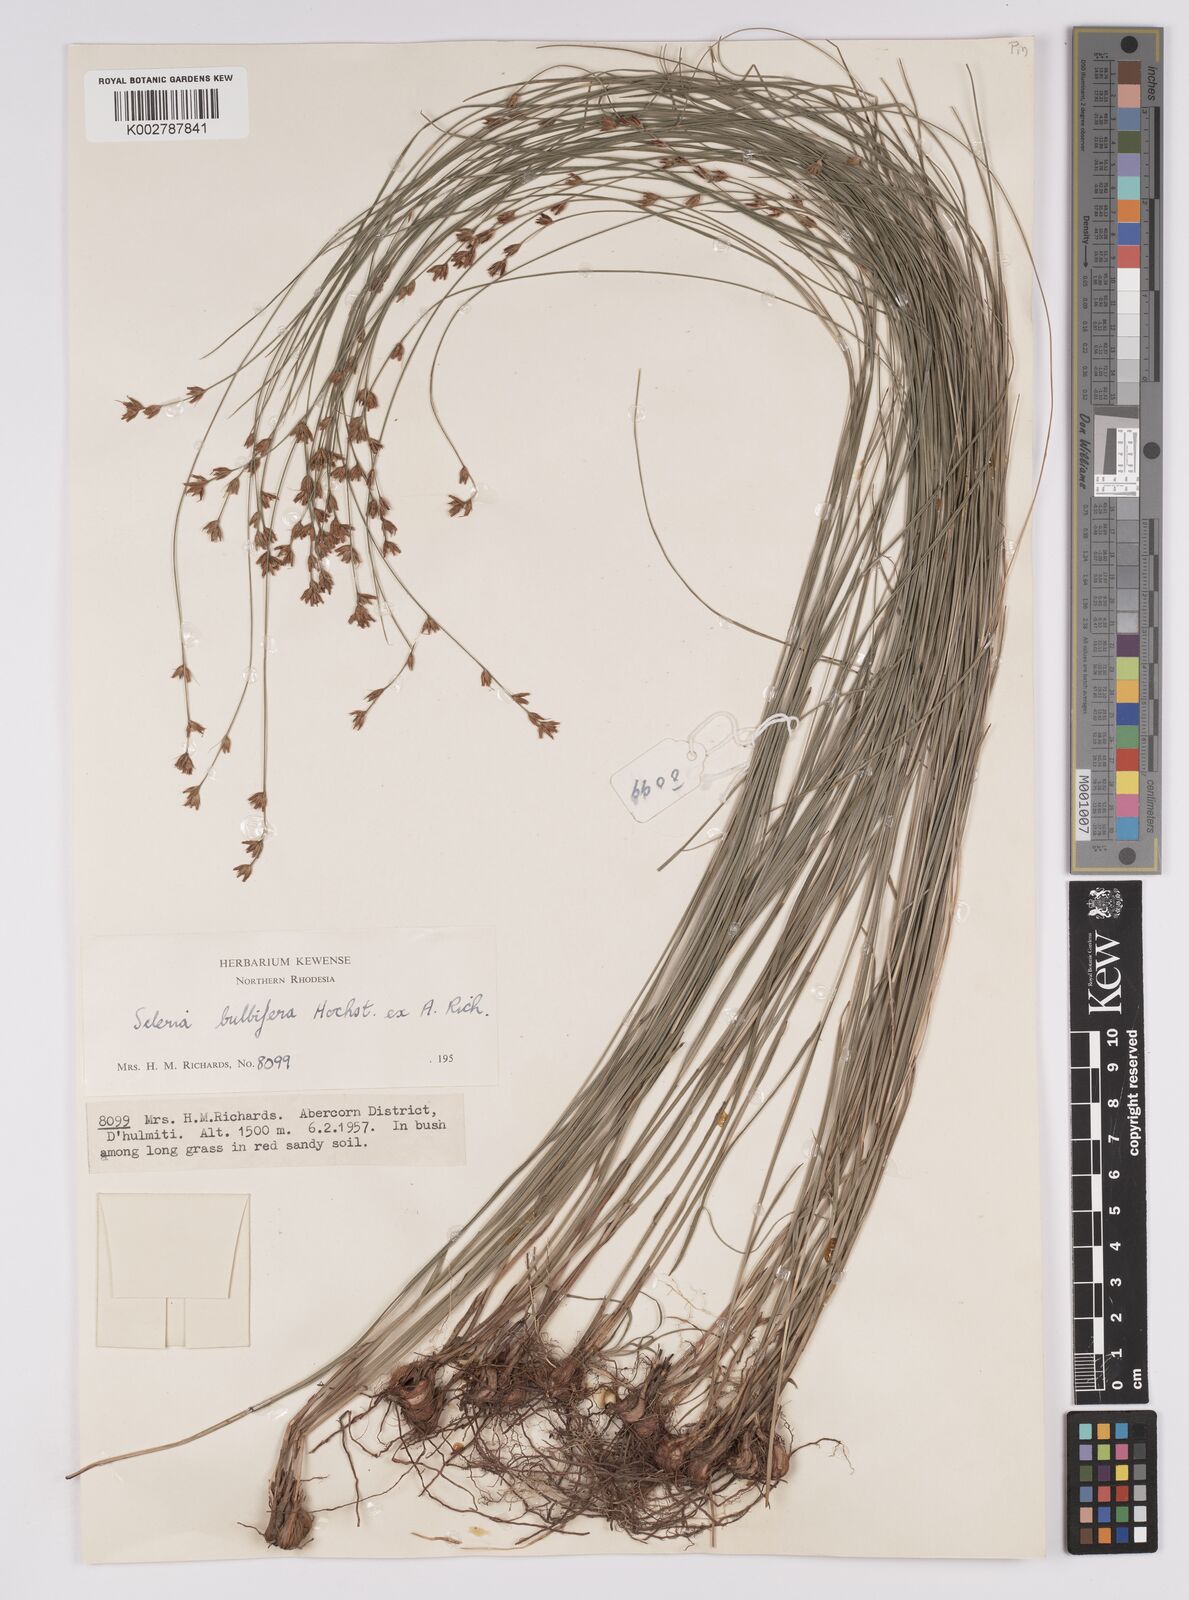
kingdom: Plantae
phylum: Tracheophyta
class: Liliopsida
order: Poales
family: Cyperaceae
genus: Scleria
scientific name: Scleria bulbifera
